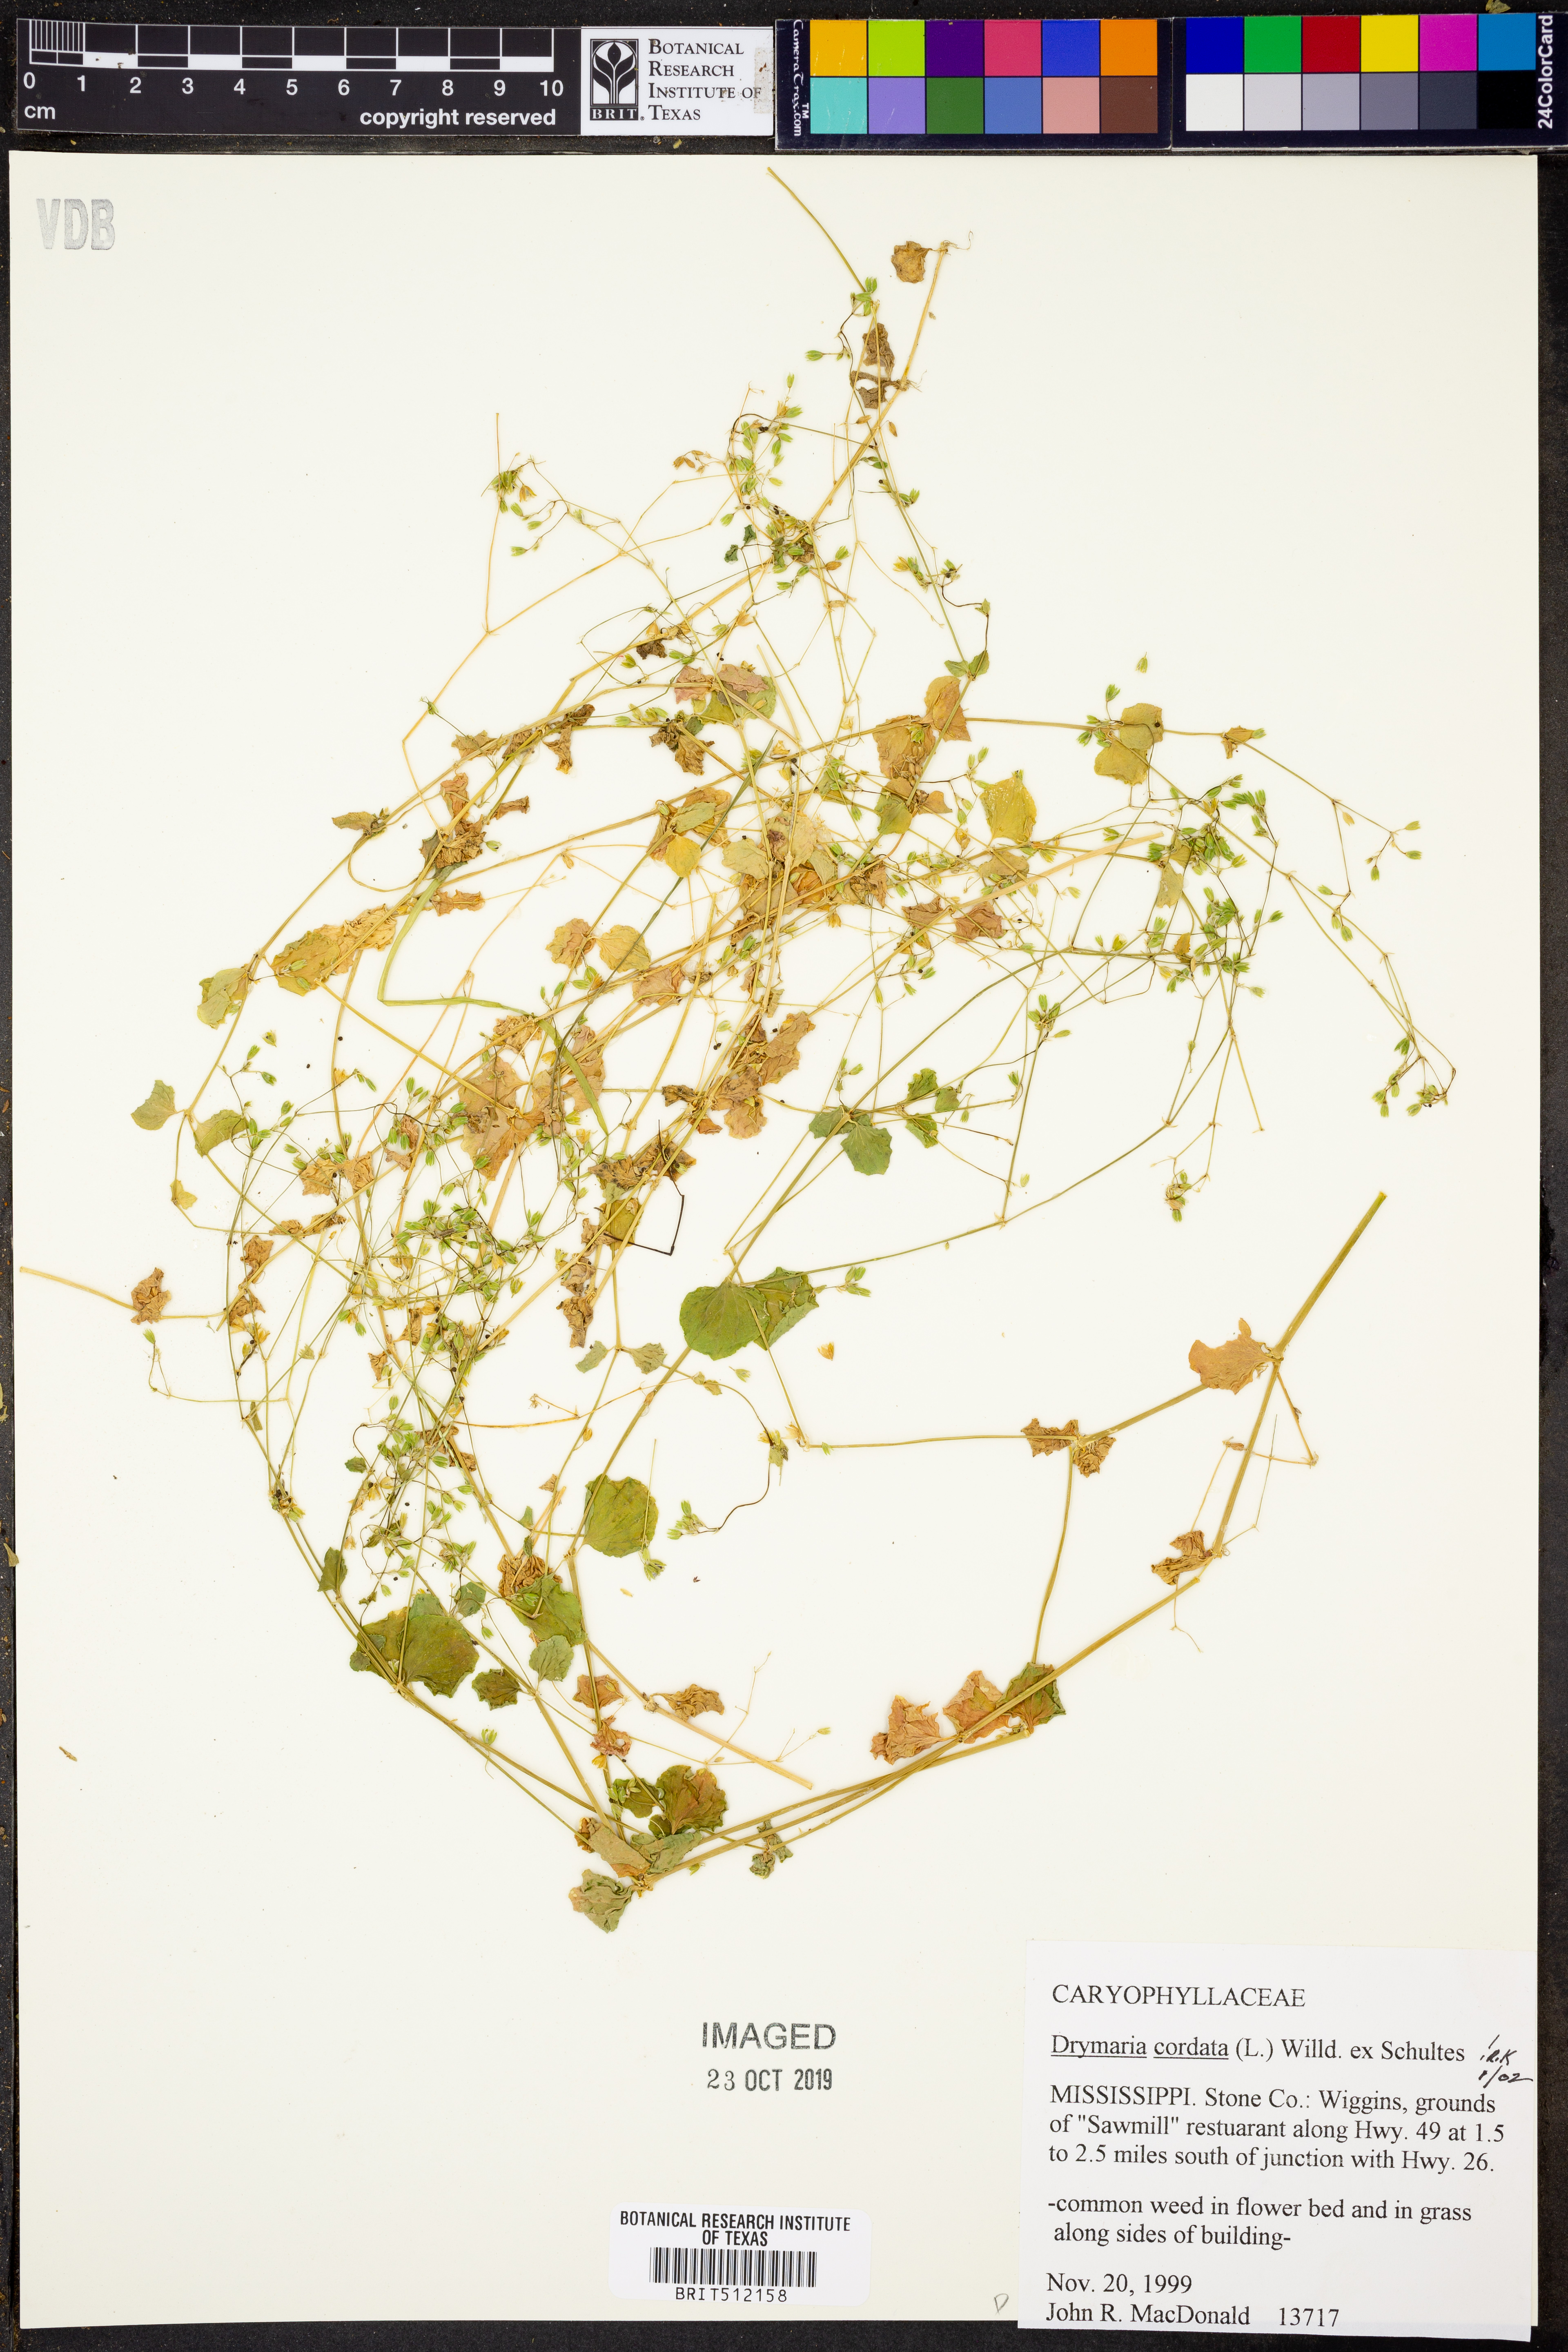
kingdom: Plantae
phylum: Tracheophyta
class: Magnoliopsida
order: Caryophyllales
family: Caryophyllaceae
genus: Drymaria
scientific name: Drymaria cordata
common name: Whitesnow
